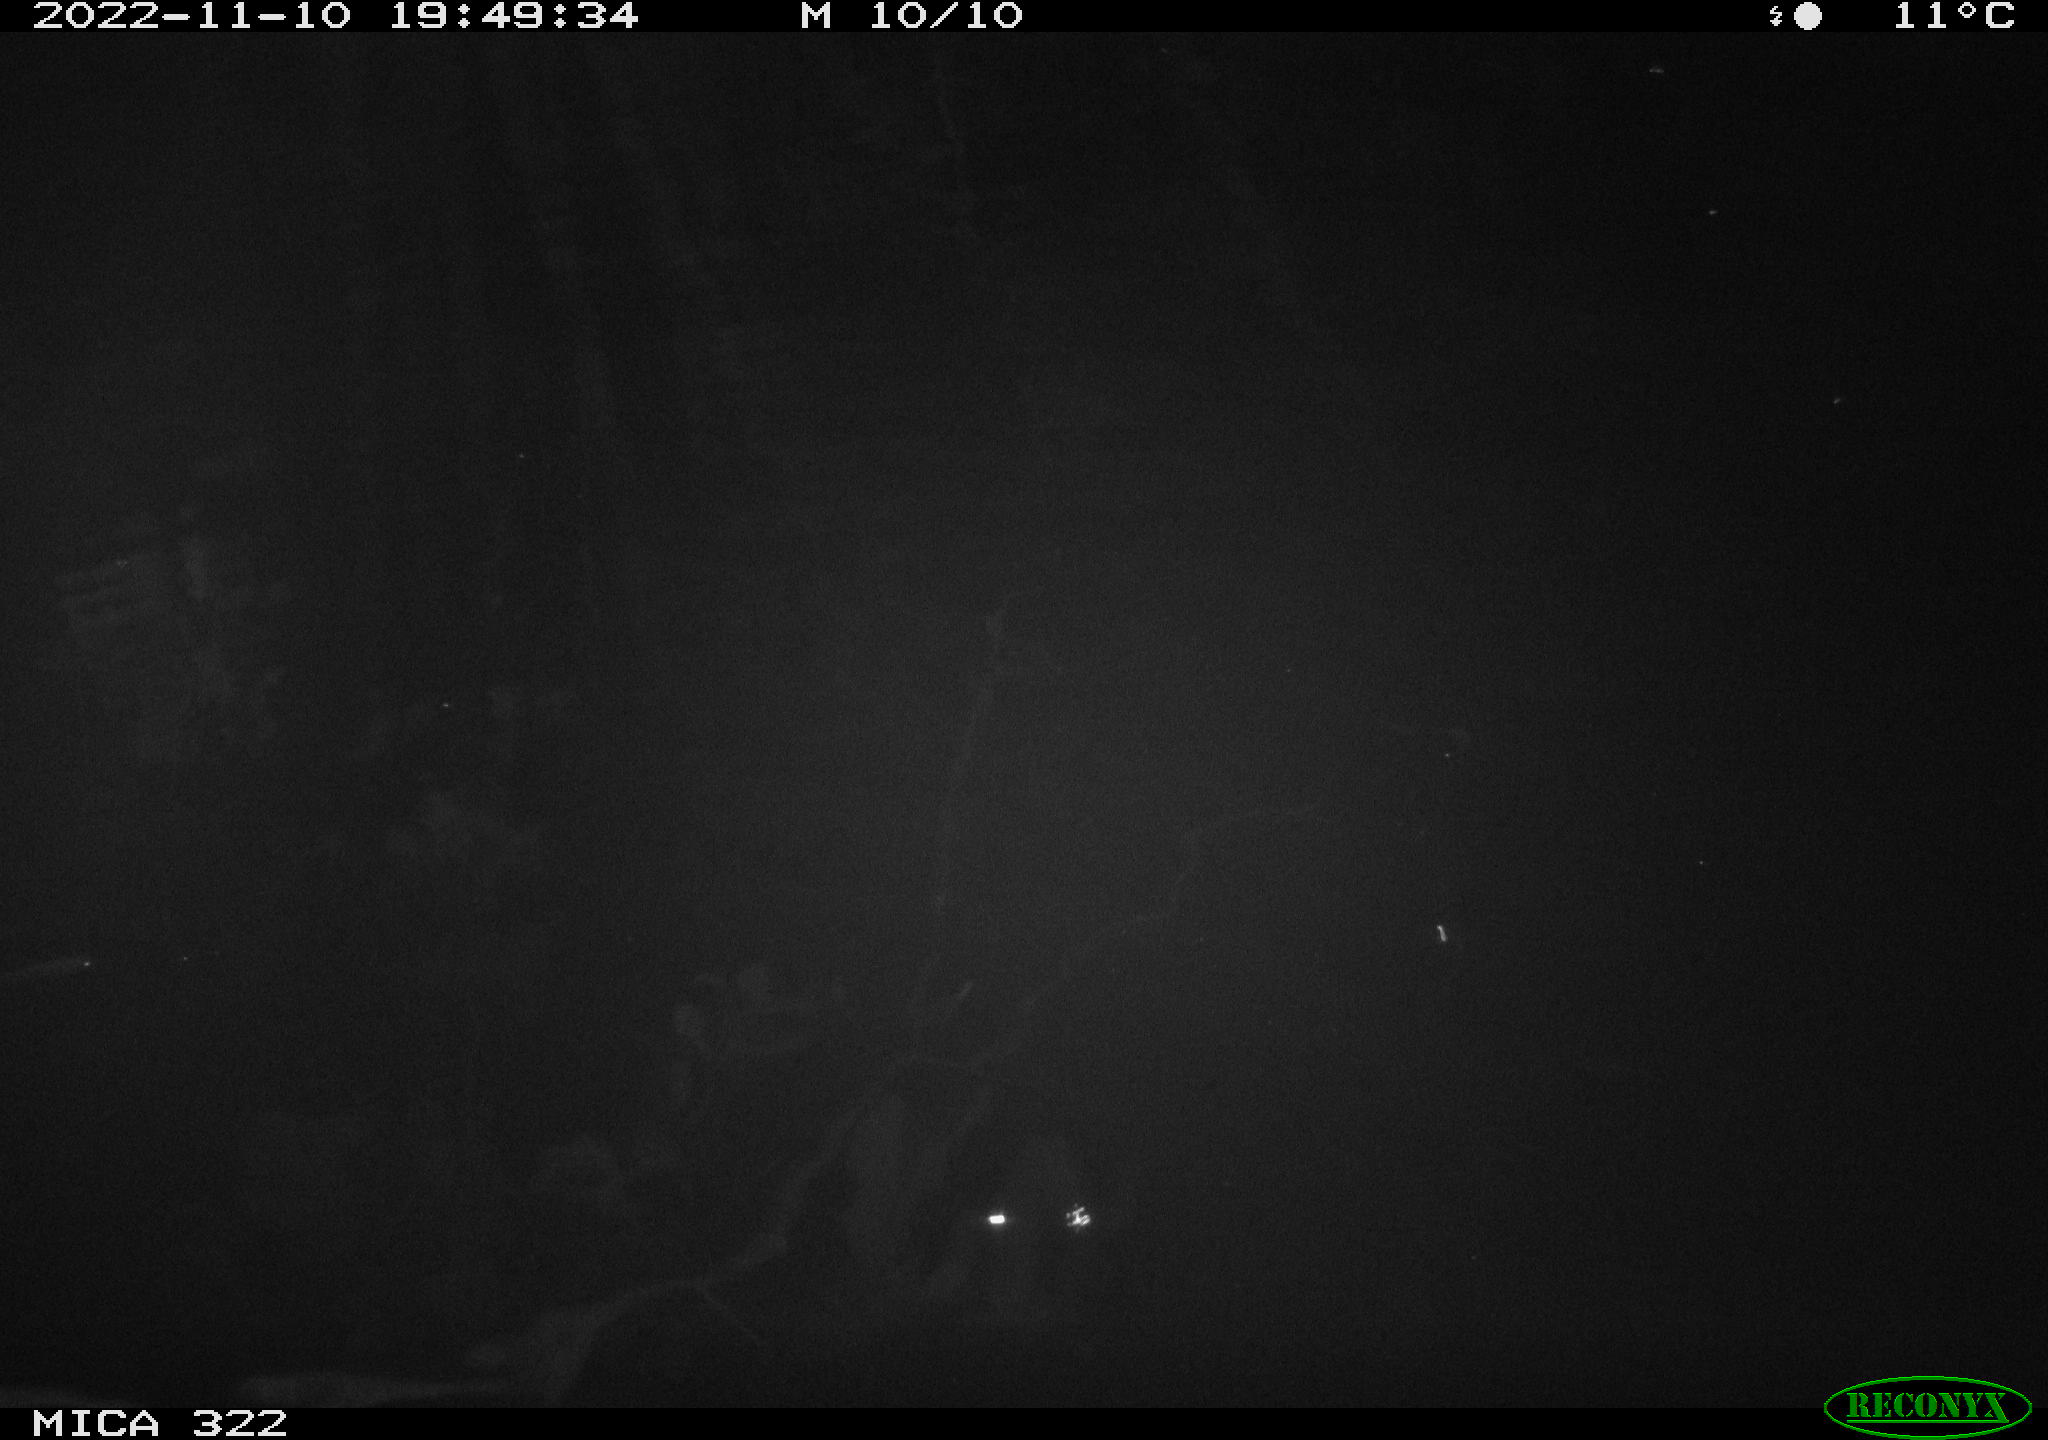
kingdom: Animalia
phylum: Chordata
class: Mammalia
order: Rodentia
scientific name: Rodentia
